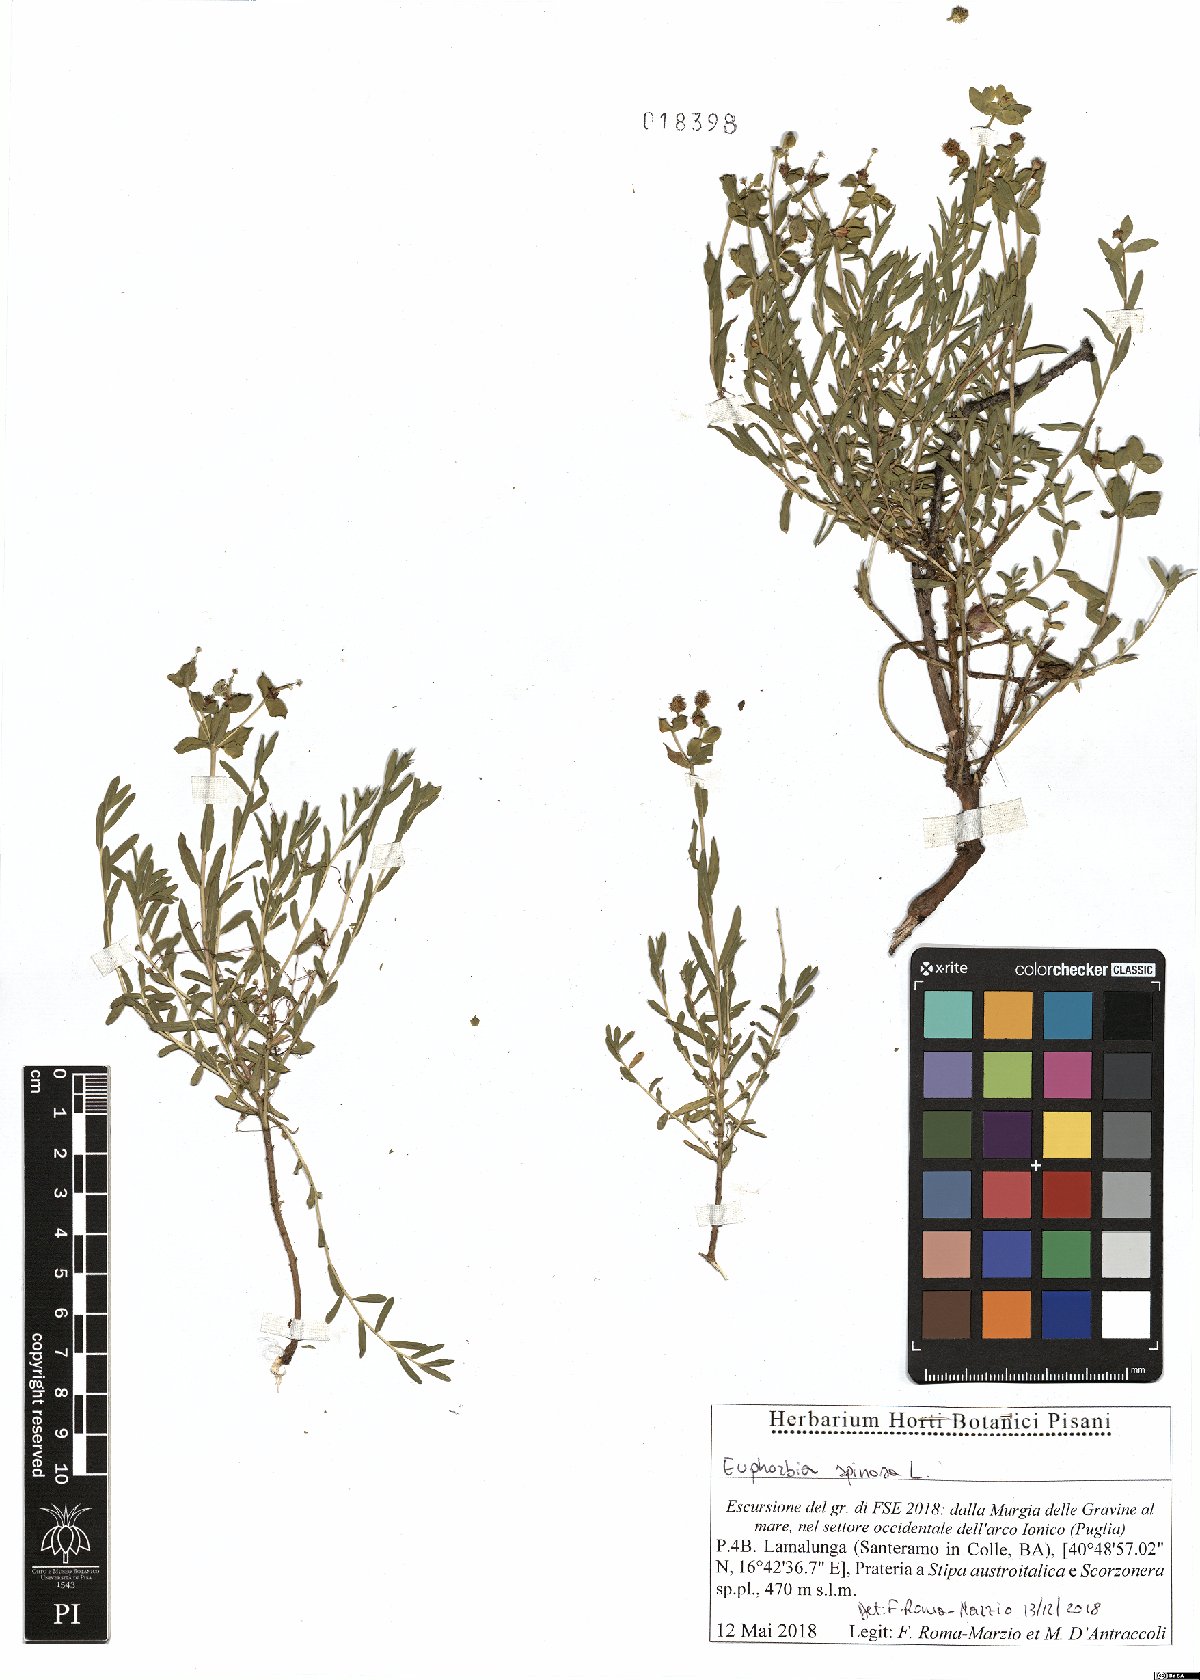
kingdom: Plantae
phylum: Tracheophyta
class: Magnoliopsida
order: Malpighiales
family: Euphorbiaceae
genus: Euphorbia
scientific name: Euphorbia spinosa
